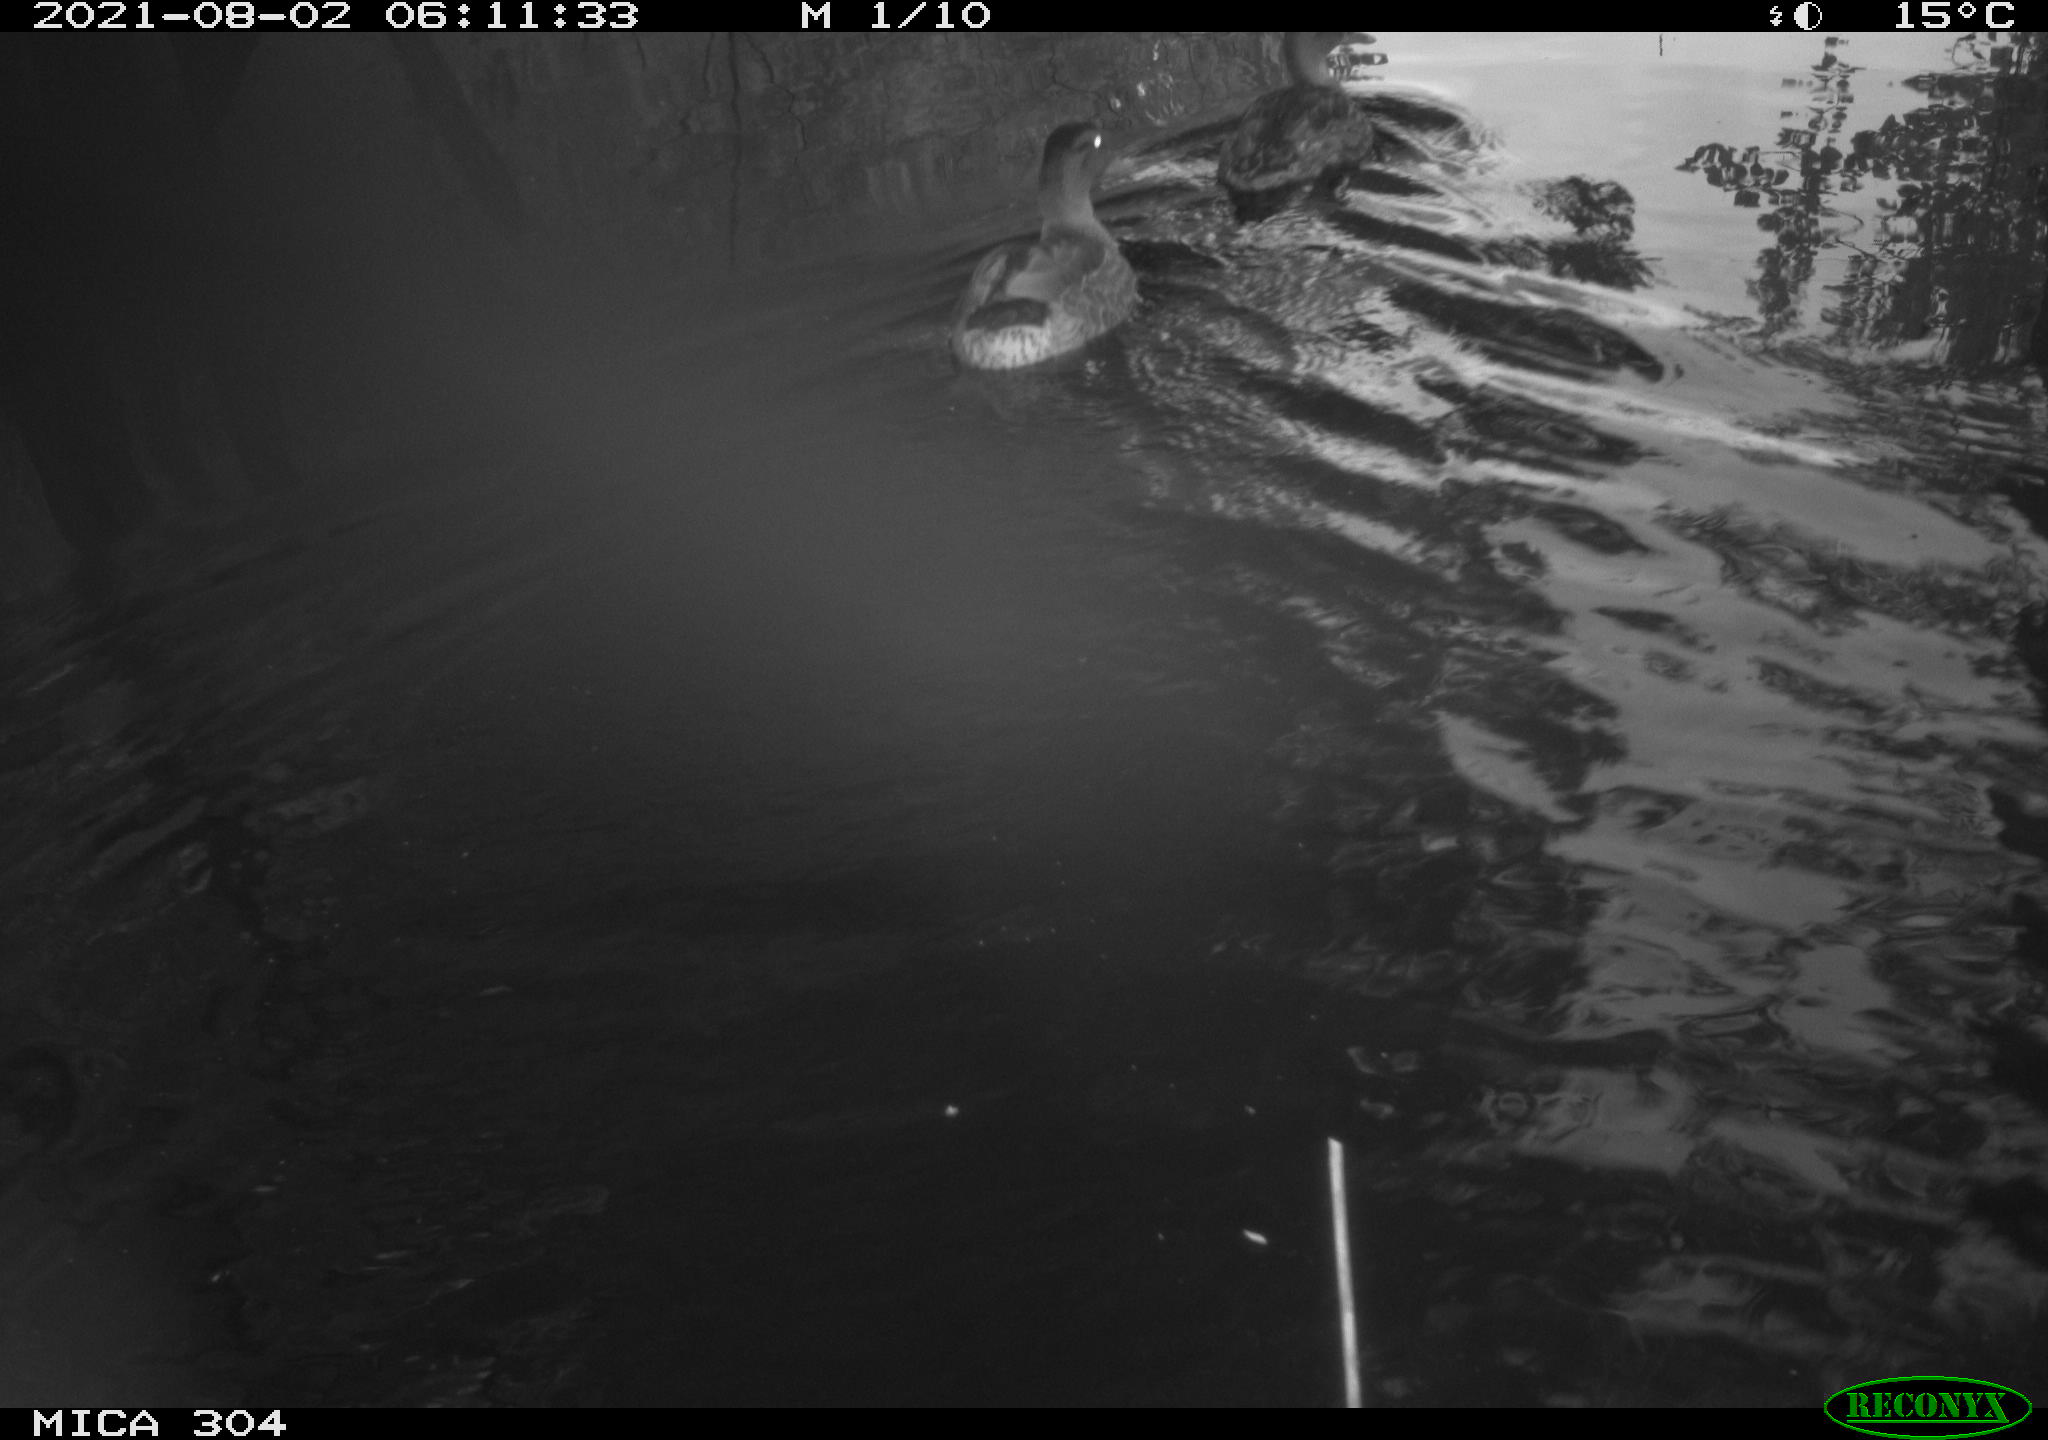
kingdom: Animalia
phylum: Chordata
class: Aves
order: Anseriformes
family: Anatidae
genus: Anas
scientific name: Anas platyrhynchos
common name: Mallard
